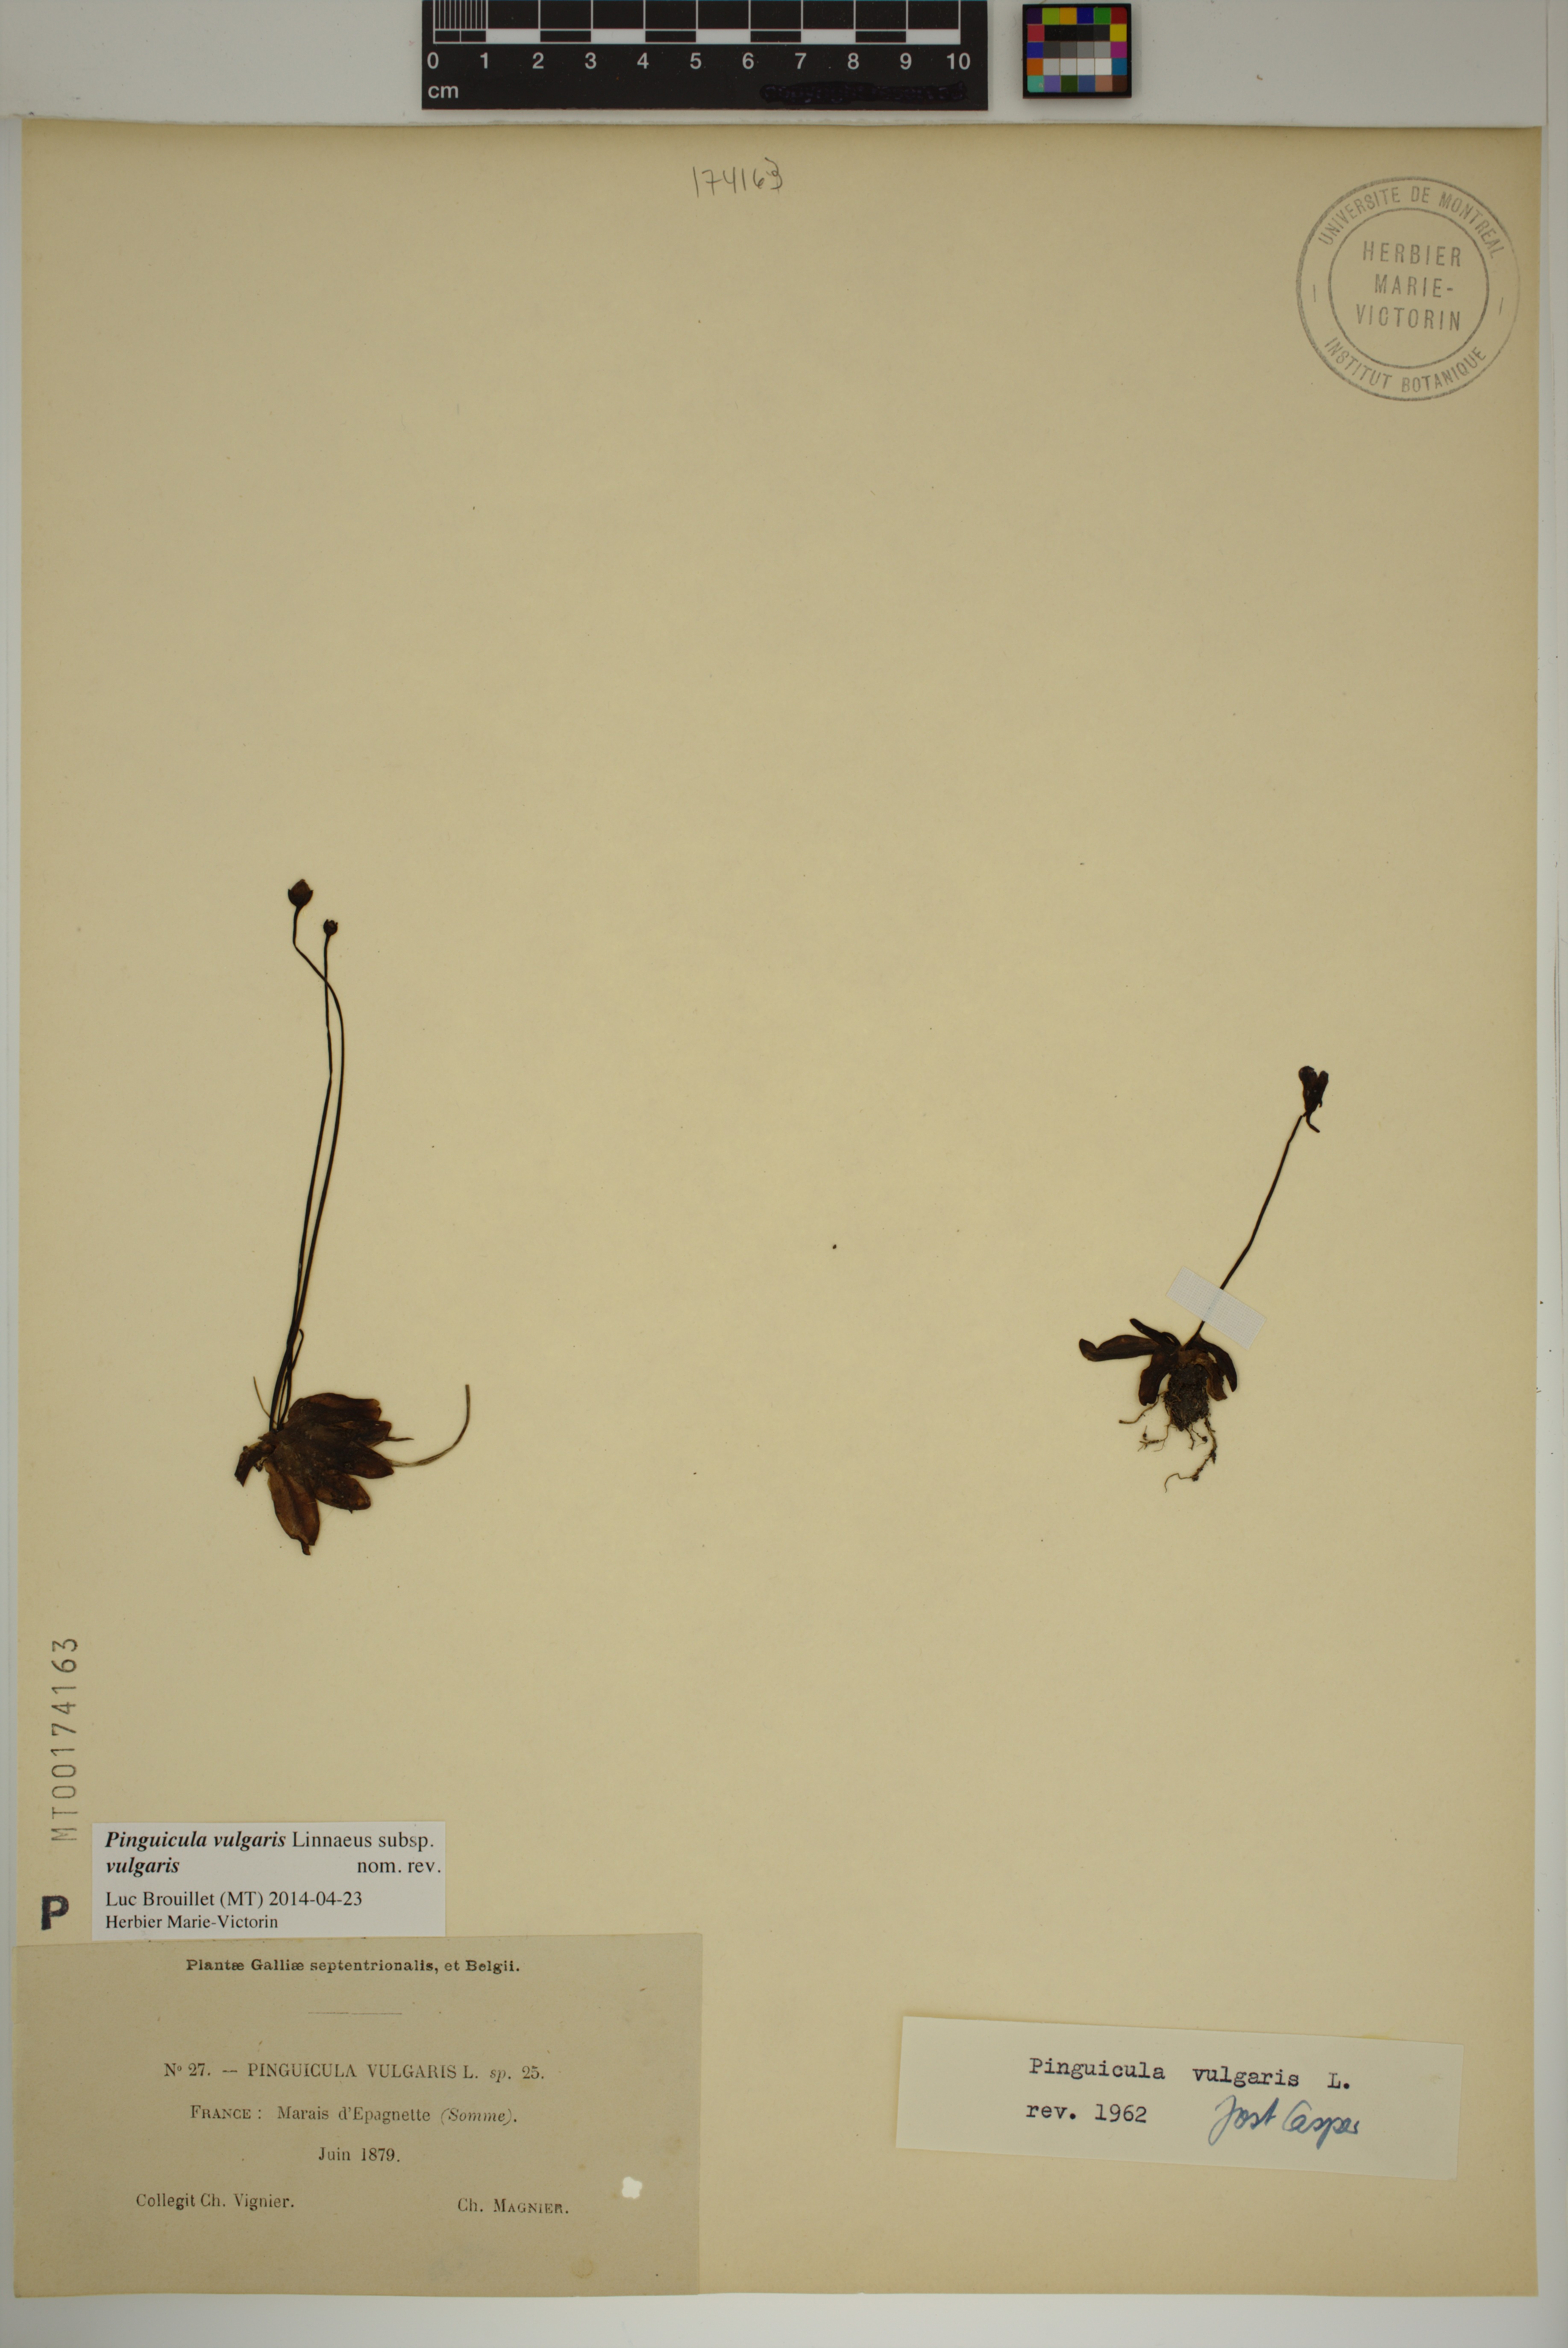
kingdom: Plantae
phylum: Tracheophyta
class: Magnoliopsida
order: Lamiales
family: Lentibulariaceae
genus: Pinguicula
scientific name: Pinguicula vulgaris
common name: Common butterwort
